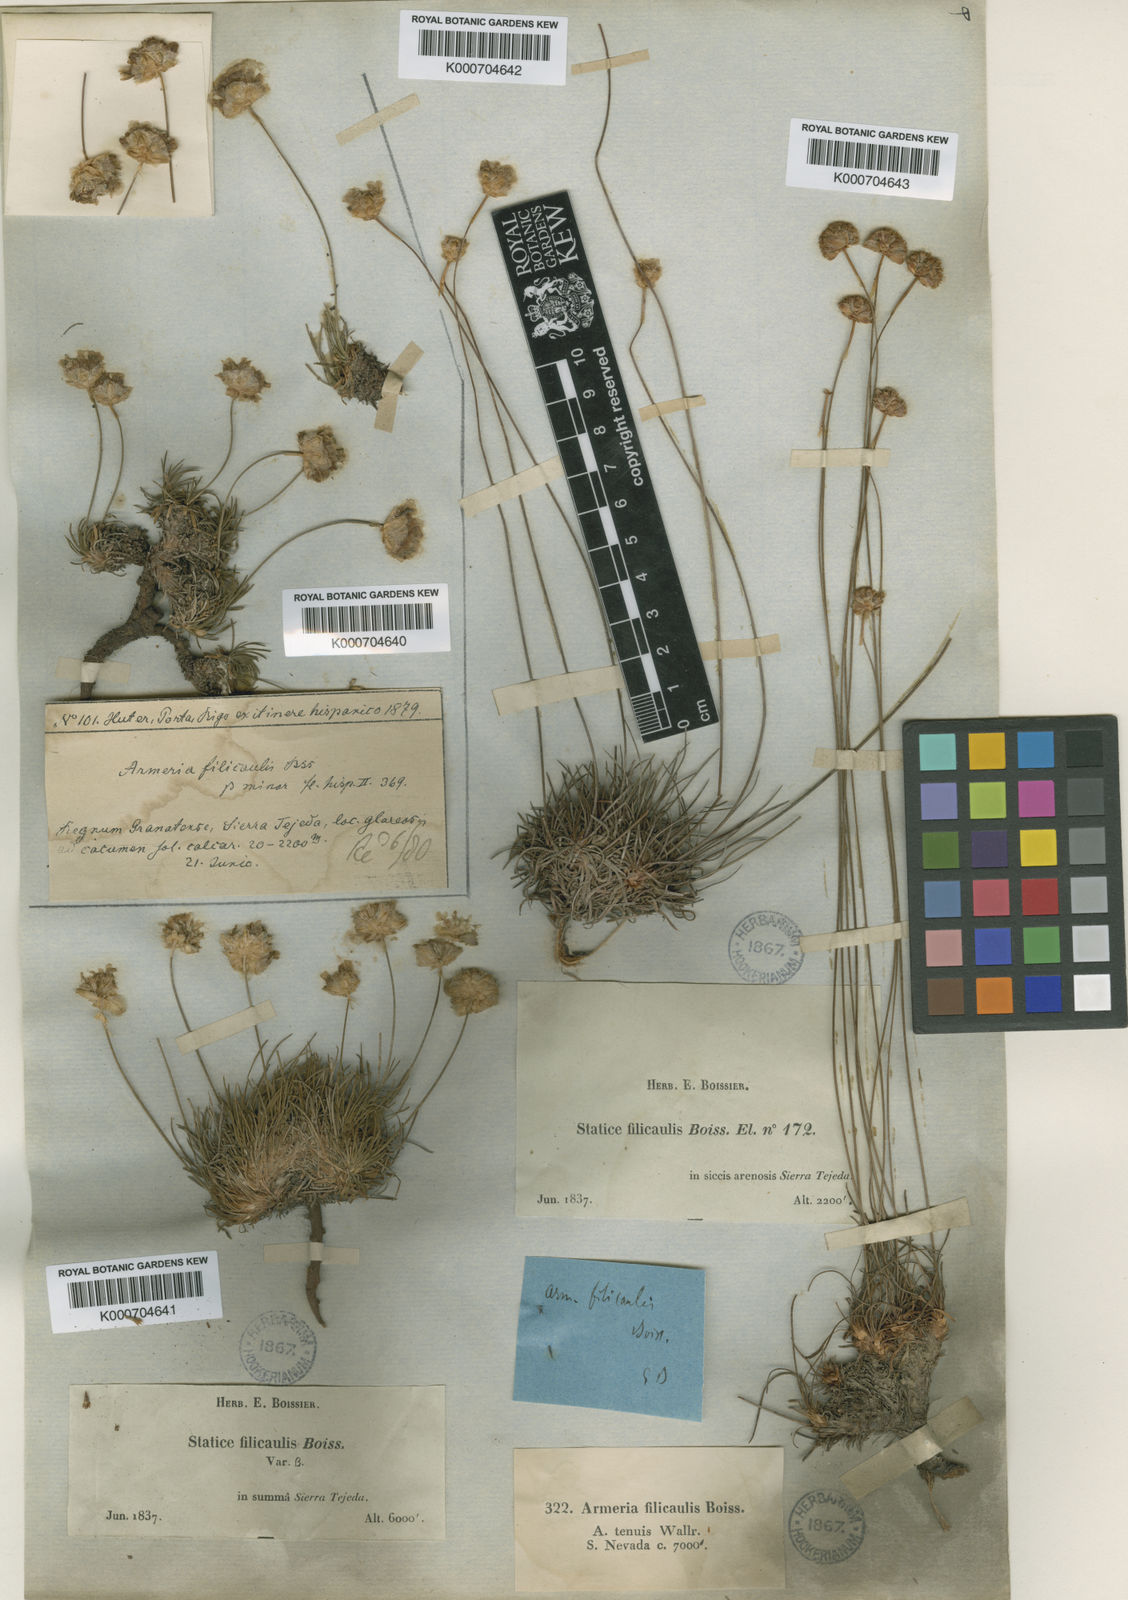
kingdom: Plantae
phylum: Tracheophyta
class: Magnoliopsida
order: Caryophyllales
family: Plumbaginaceae
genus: Armeria
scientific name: Armeria filicaulis
